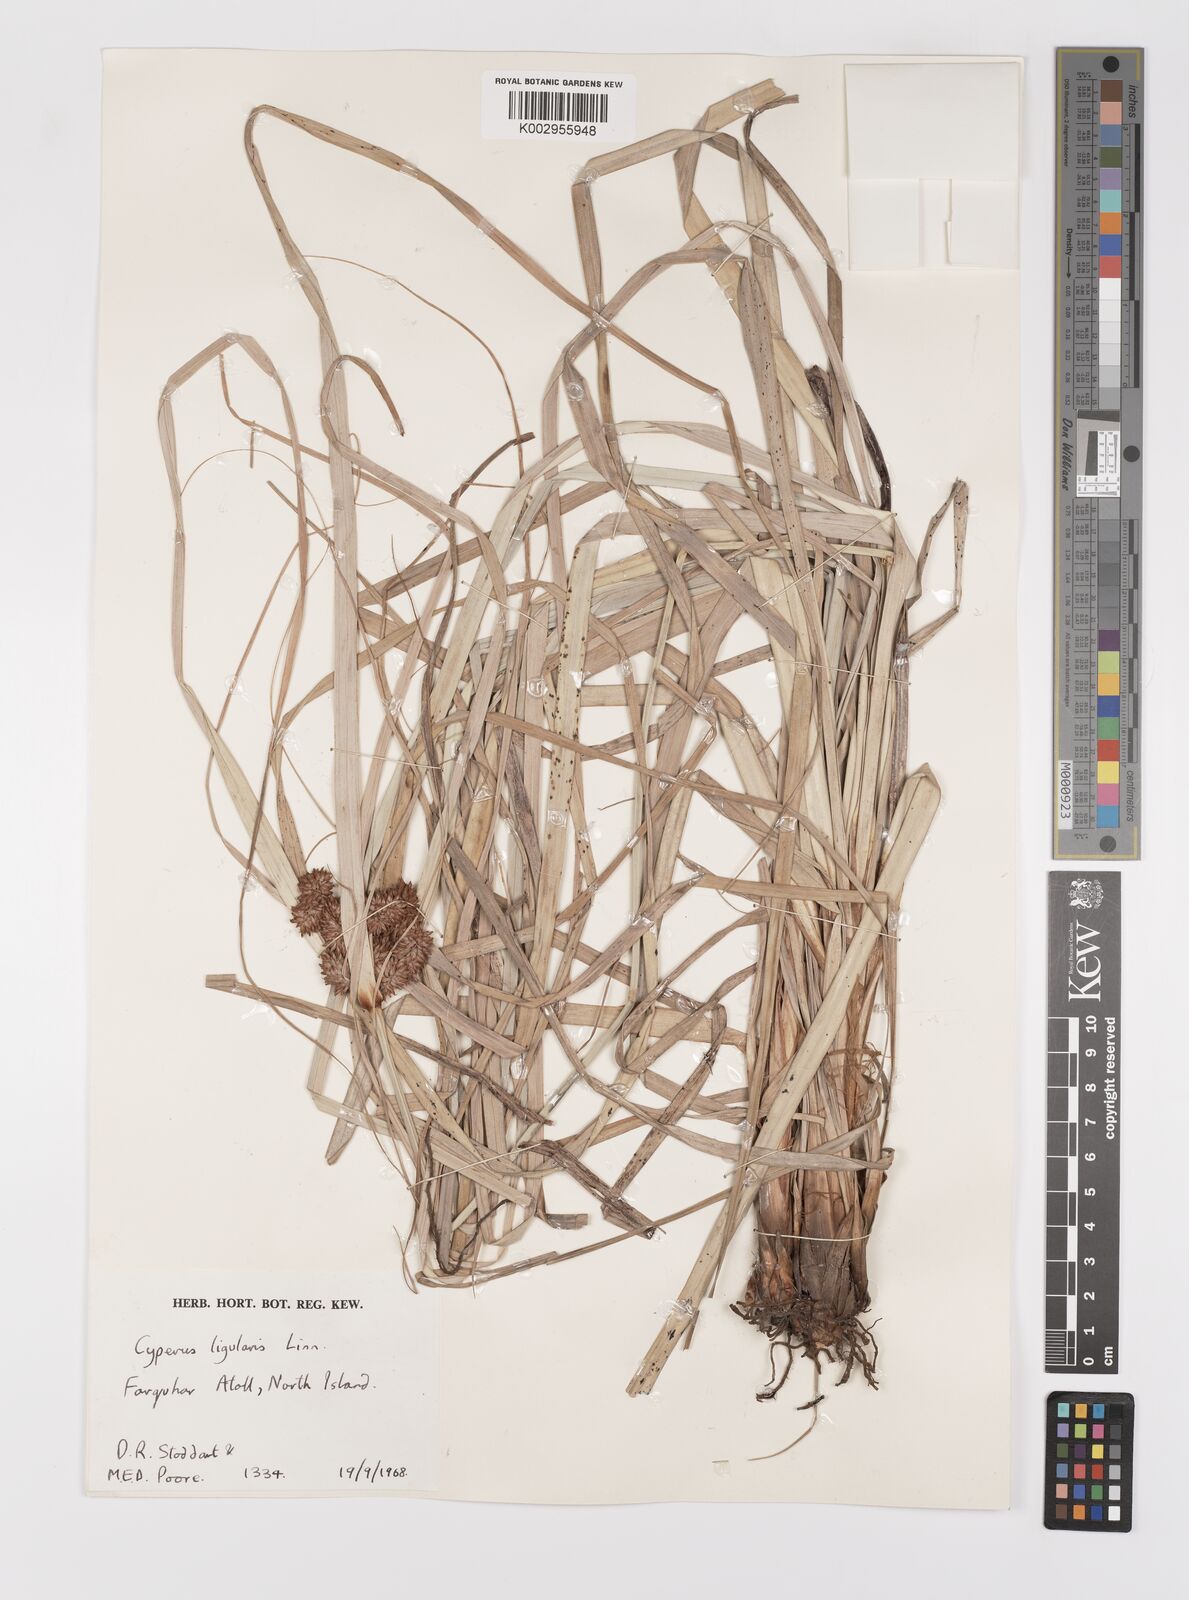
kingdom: Plantae
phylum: Tracheophyta
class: Liliopsida
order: Poales
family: Cyperaceae
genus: Cyperus
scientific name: Cyperus ligularis
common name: Swamp flat sedge
